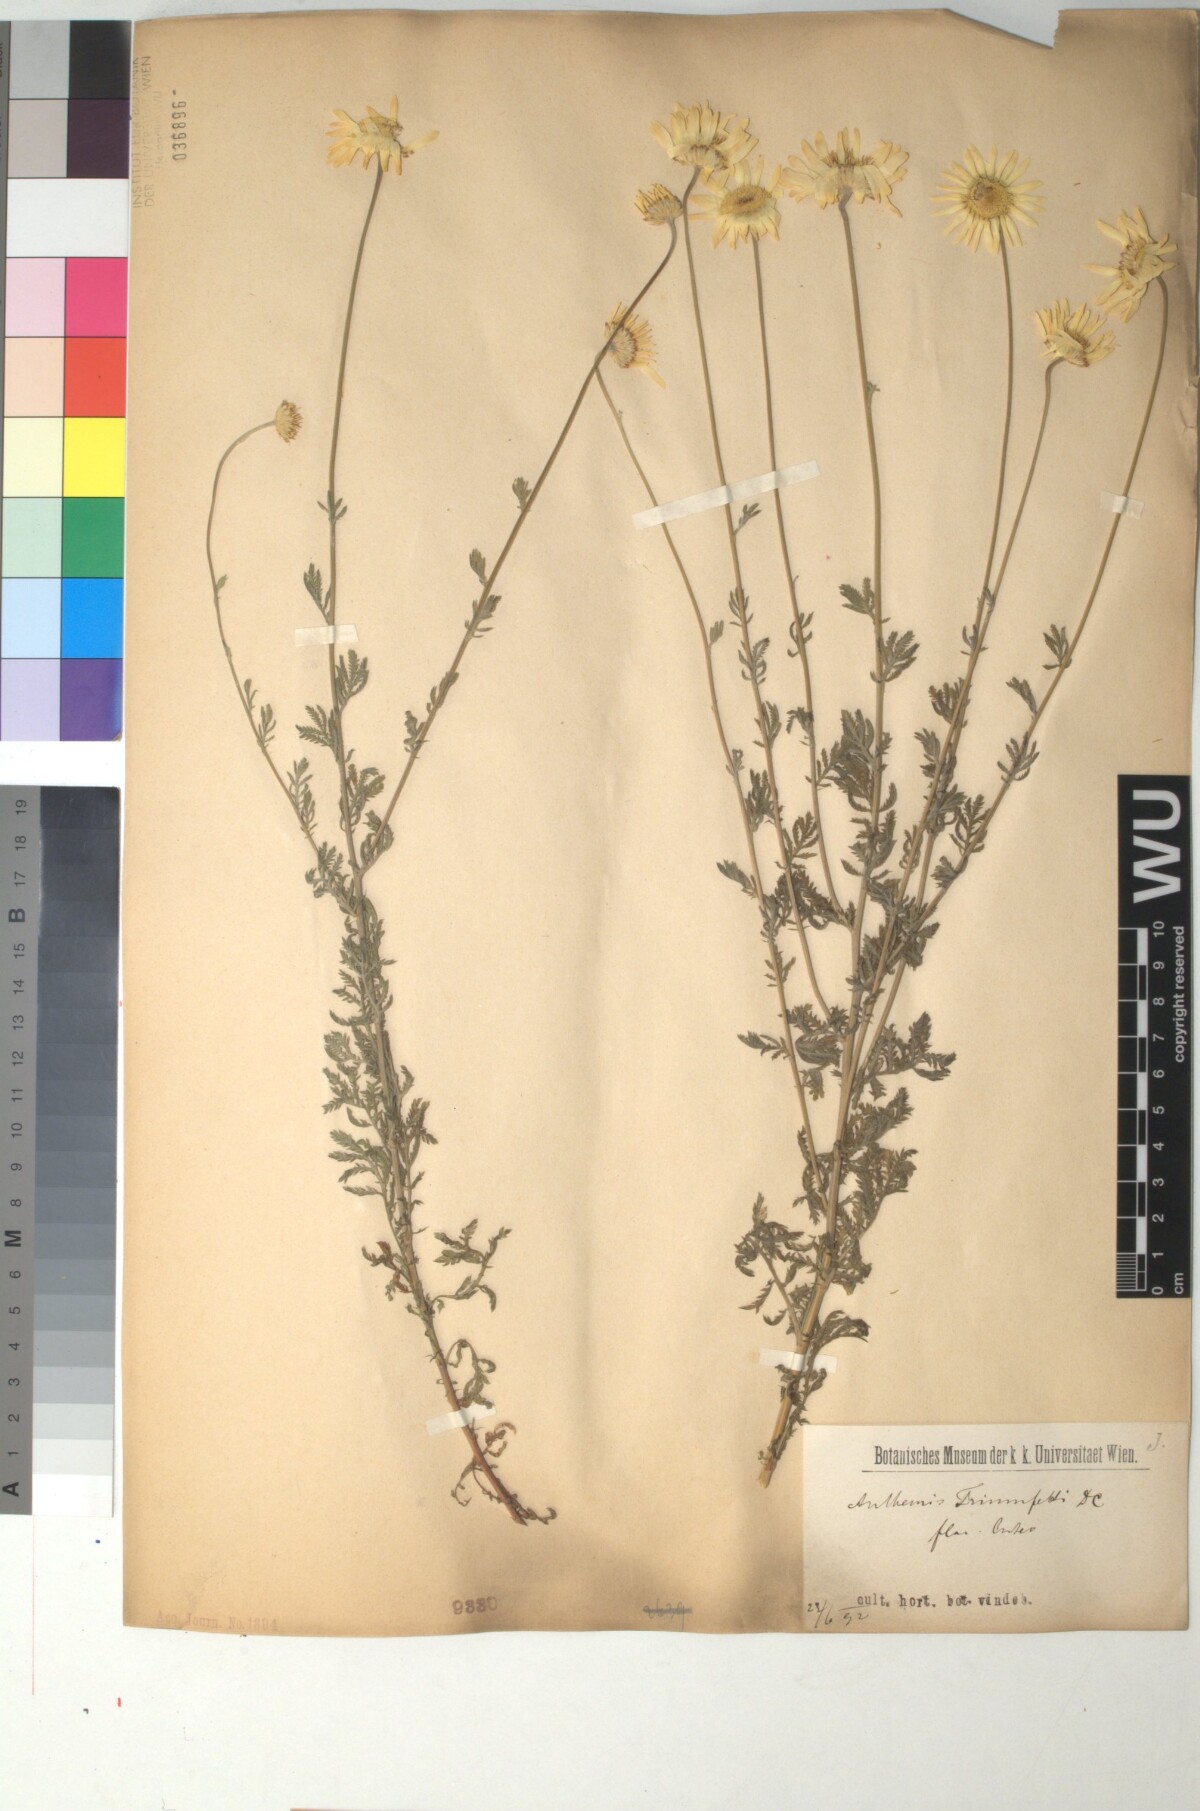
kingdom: Plantae
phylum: Tracheophyta
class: Magnoliopsida
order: Asterales
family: Asteraceae
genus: Cota
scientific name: Cota triumfetti
